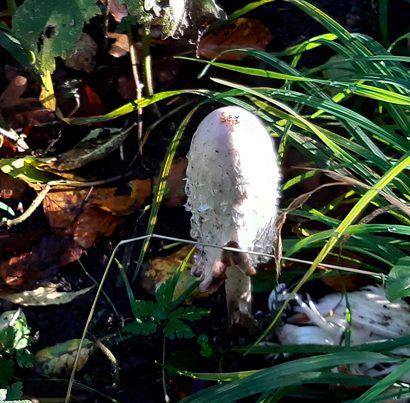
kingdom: Fungi
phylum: Basidiomycota
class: Agaricomycetes
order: Agaricales
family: Agaricaceae
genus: Coprinus
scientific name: Coprinus comatus
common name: stor parykhat
